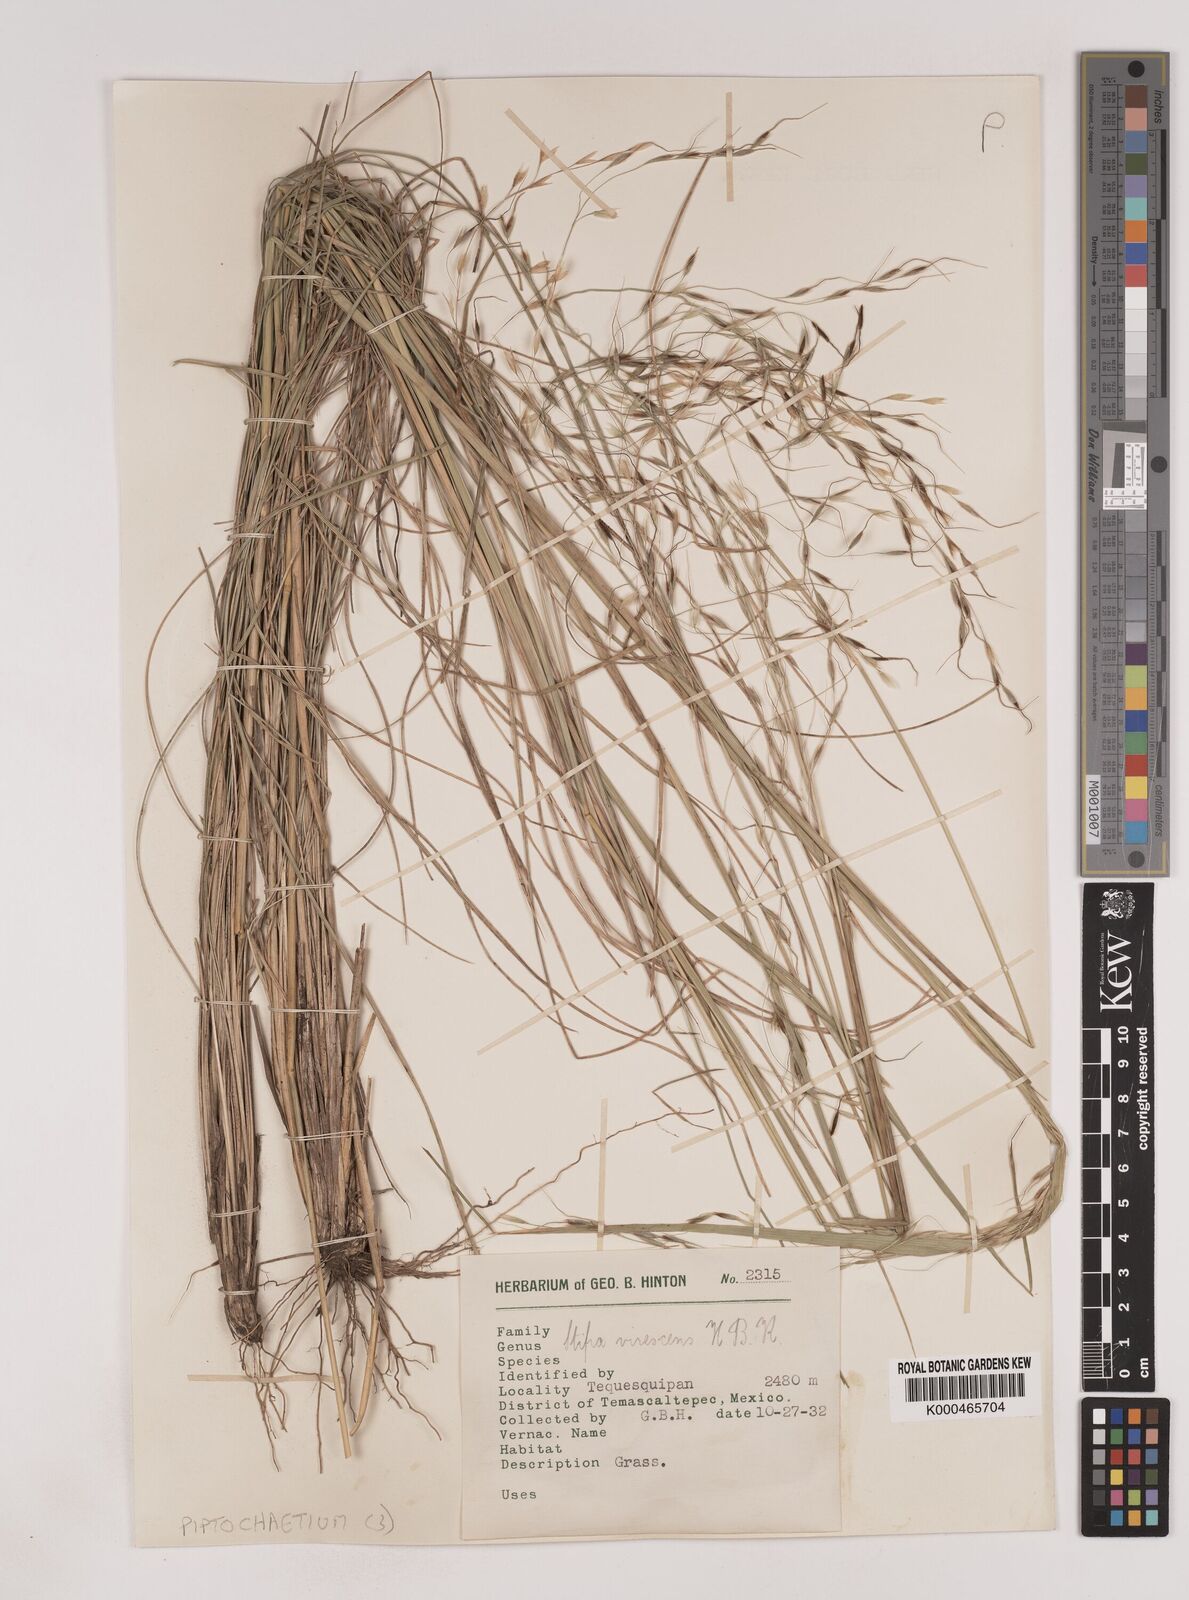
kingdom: Plantae
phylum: Tracheophyta
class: Liliopsida
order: Poales
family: Poaceae
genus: Piptochaetium
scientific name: Piptochaetium virescens
